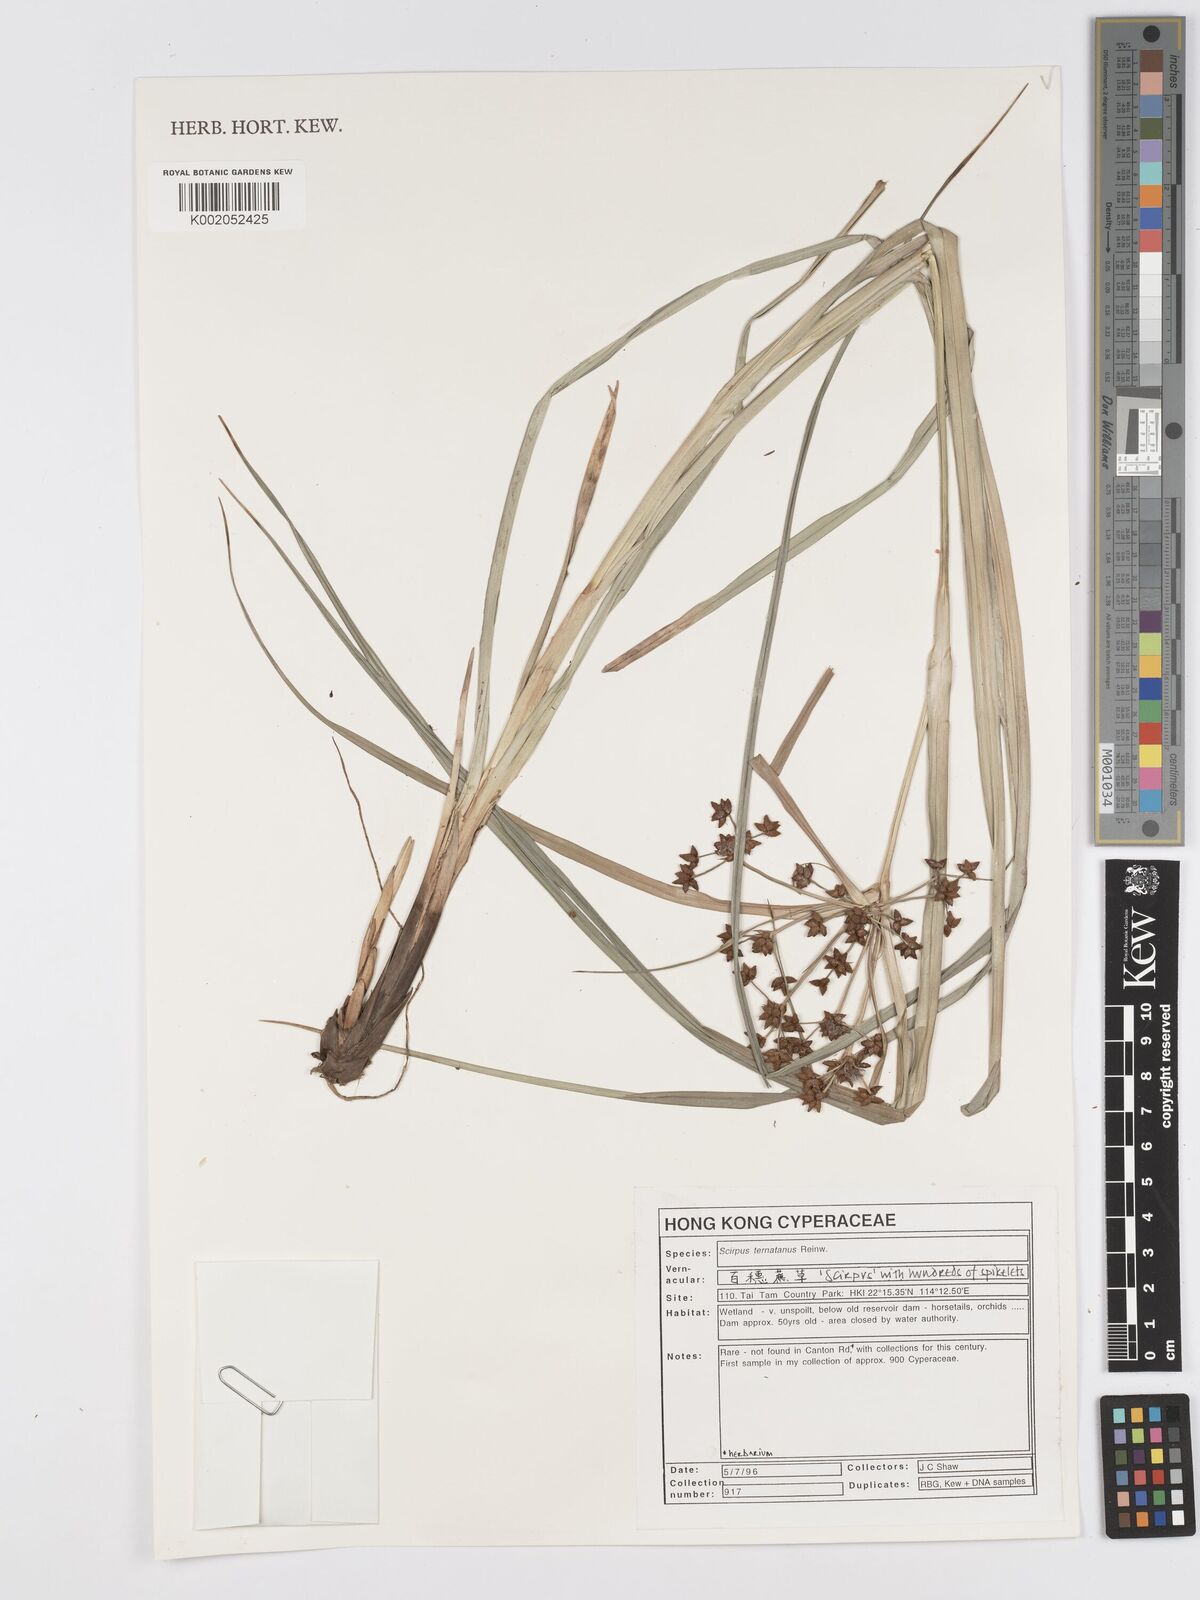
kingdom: Plantae
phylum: Tracheophyta
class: Liliopsida
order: Poales
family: Cyperaceae
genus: Scirpus
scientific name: Scirpus ternatanus
